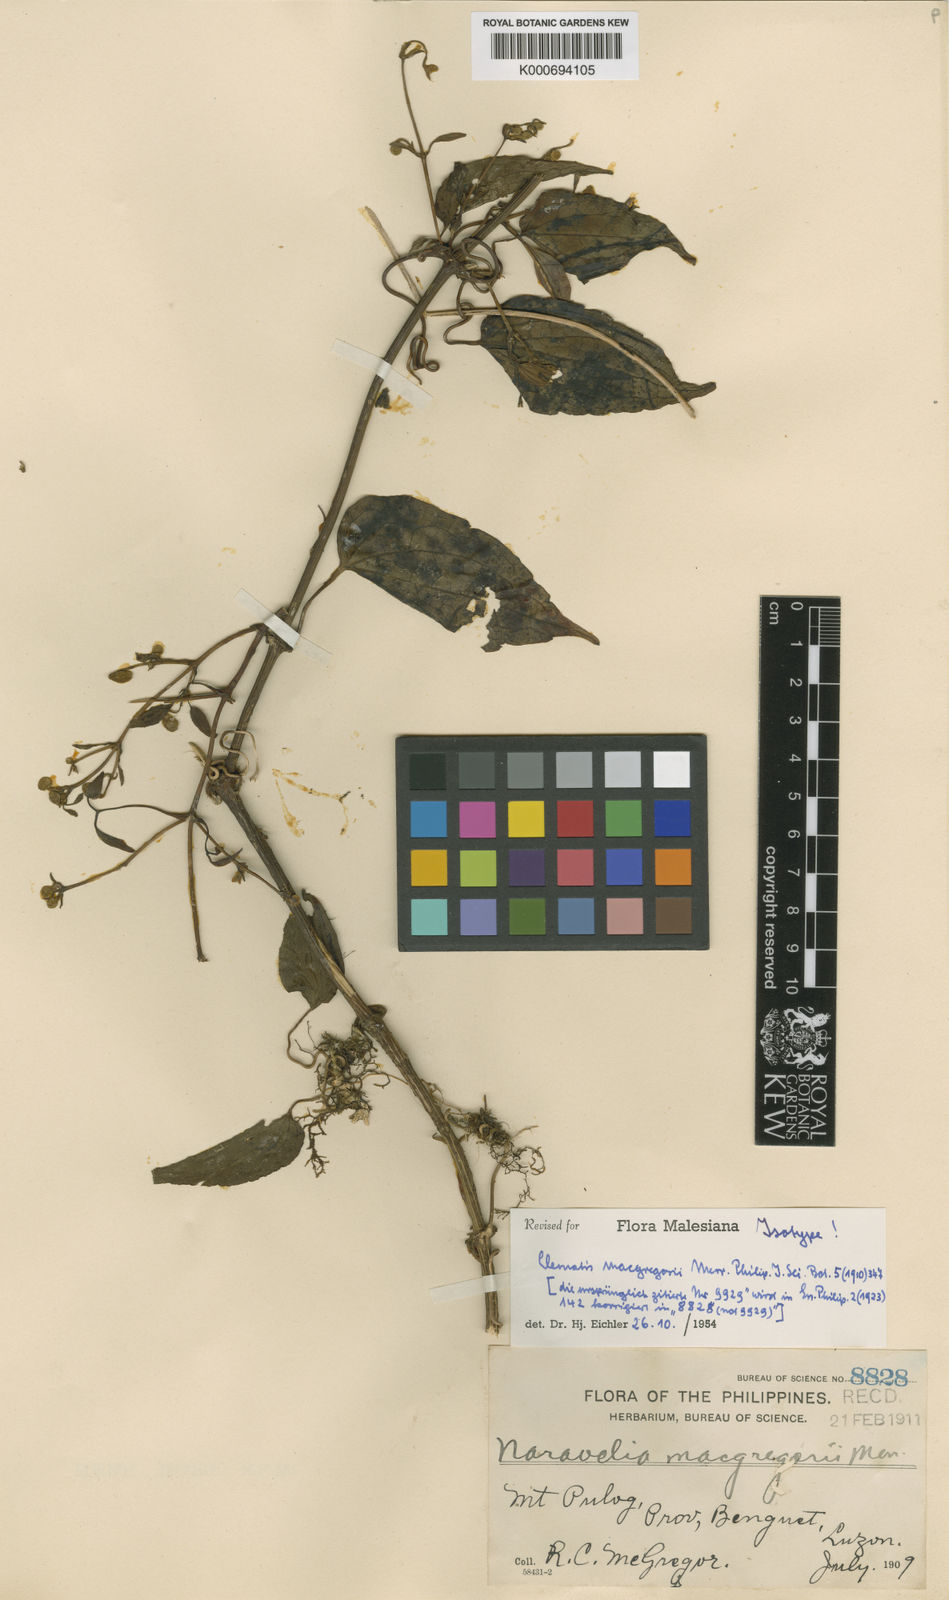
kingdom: Plantae
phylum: Tracheophyta
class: Magnoliopsida
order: Ranunculales
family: Ranunculaceae
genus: Clematis
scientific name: Clematis
